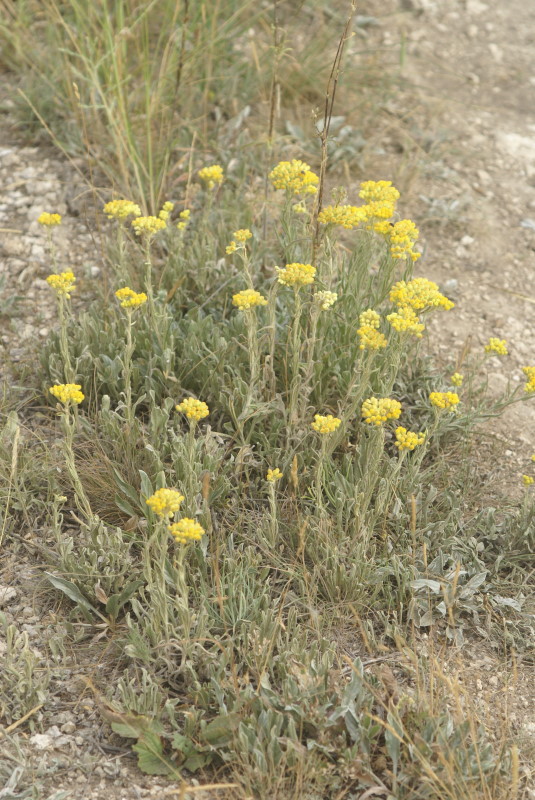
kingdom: Plantae
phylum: Tracheophyta
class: Magnoliopsida
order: Asterales
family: Asteraceae
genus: Helichrysum
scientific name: Helichrysum arenarium
